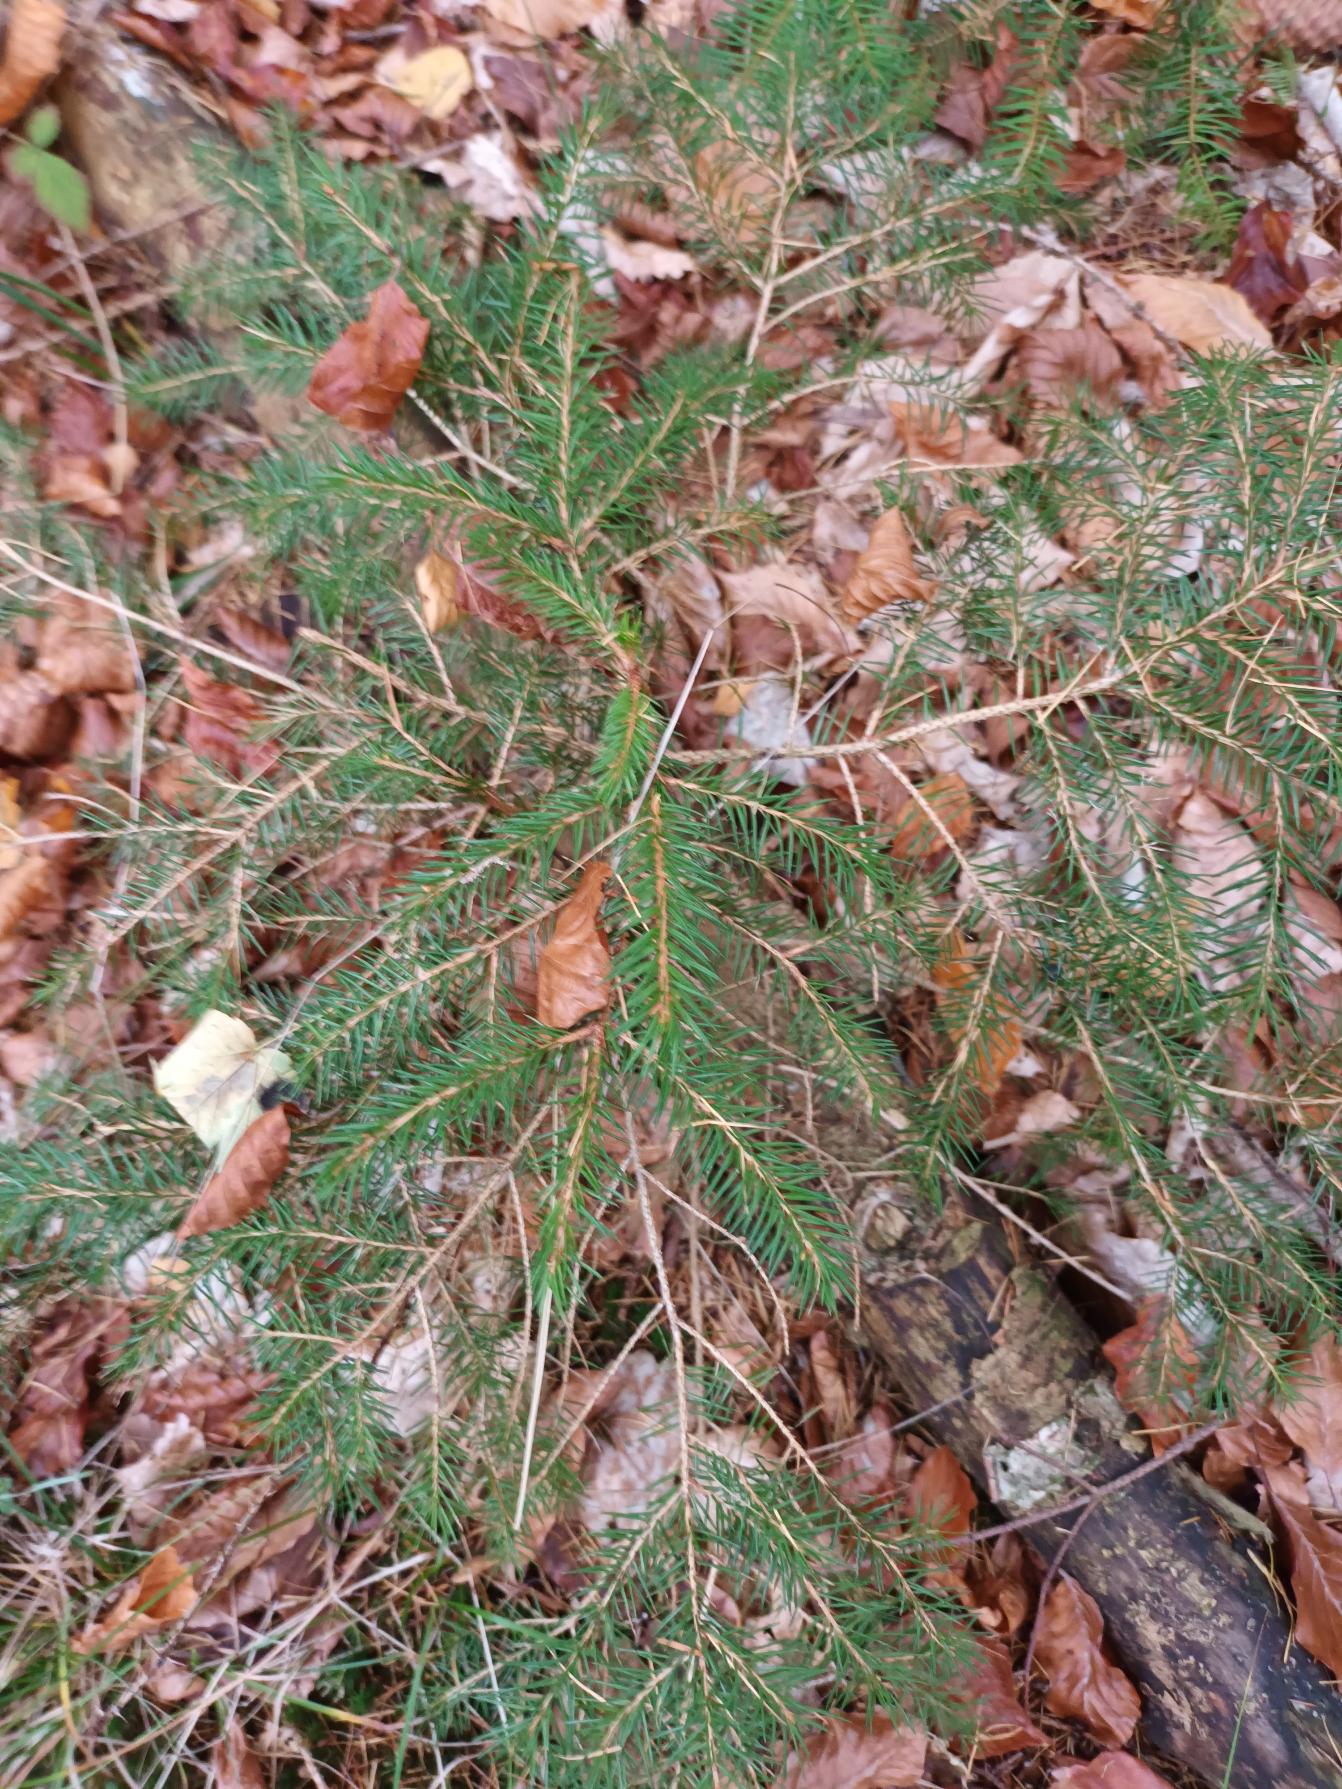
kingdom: Plantae
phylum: Tracheophyta
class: Pinopsida
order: Pinales
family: Pinaceae
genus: Picea
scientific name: Picea abies
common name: Rød-gran
